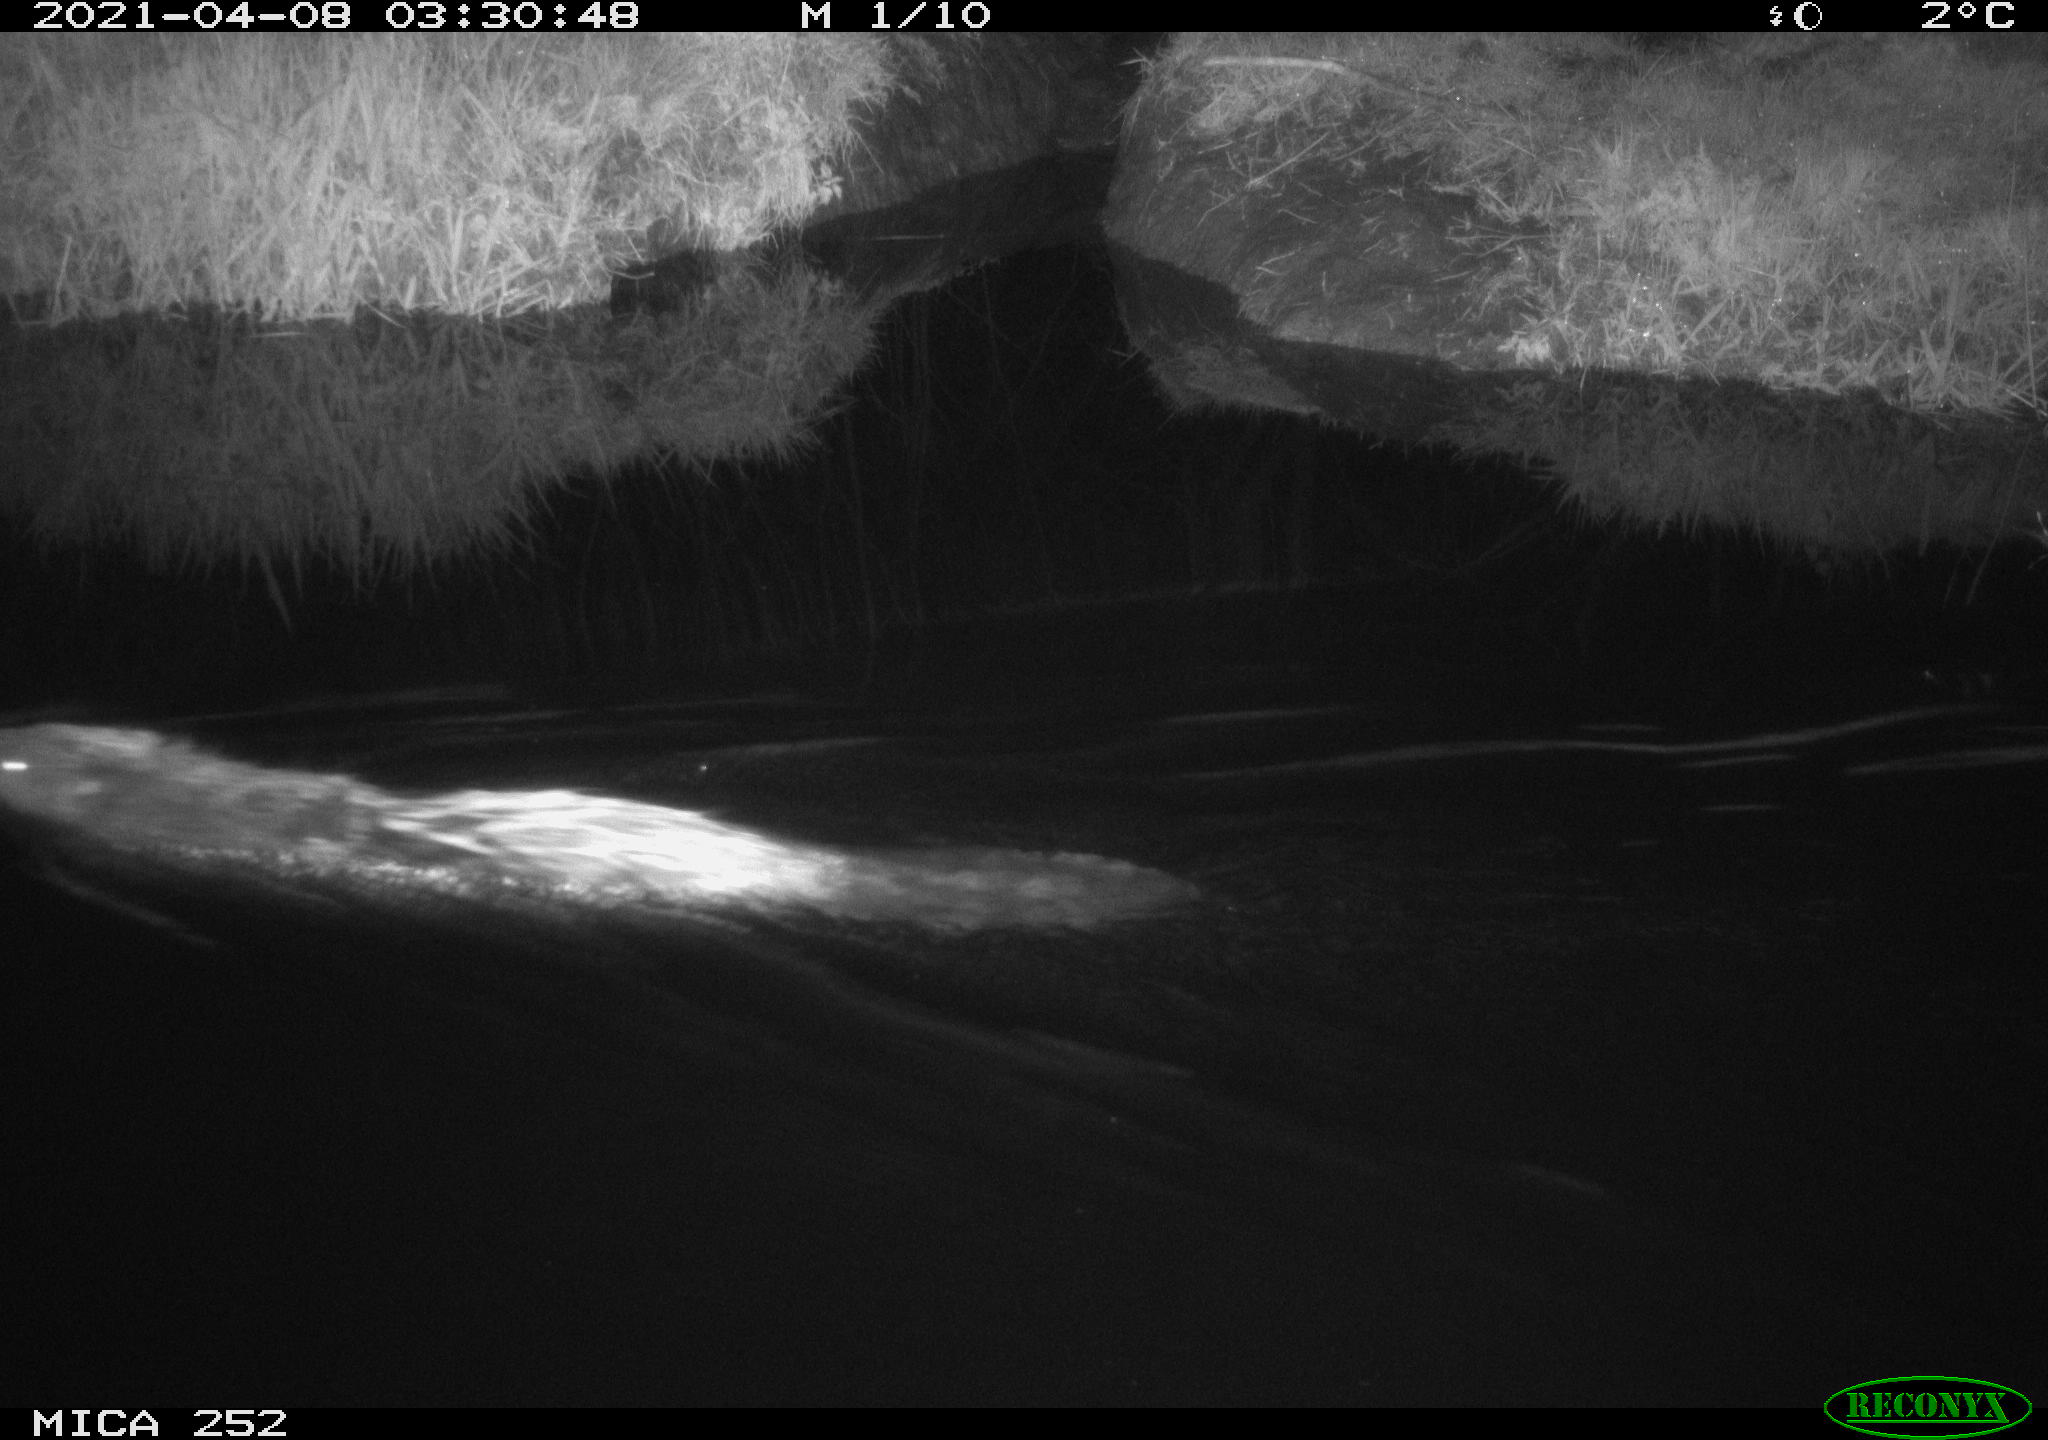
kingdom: Animalia
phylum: Chordata
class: Mammalia
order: Rodentia
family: Castoridae
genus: Castor
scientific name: Castor fiber
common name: Eurasian beaver
